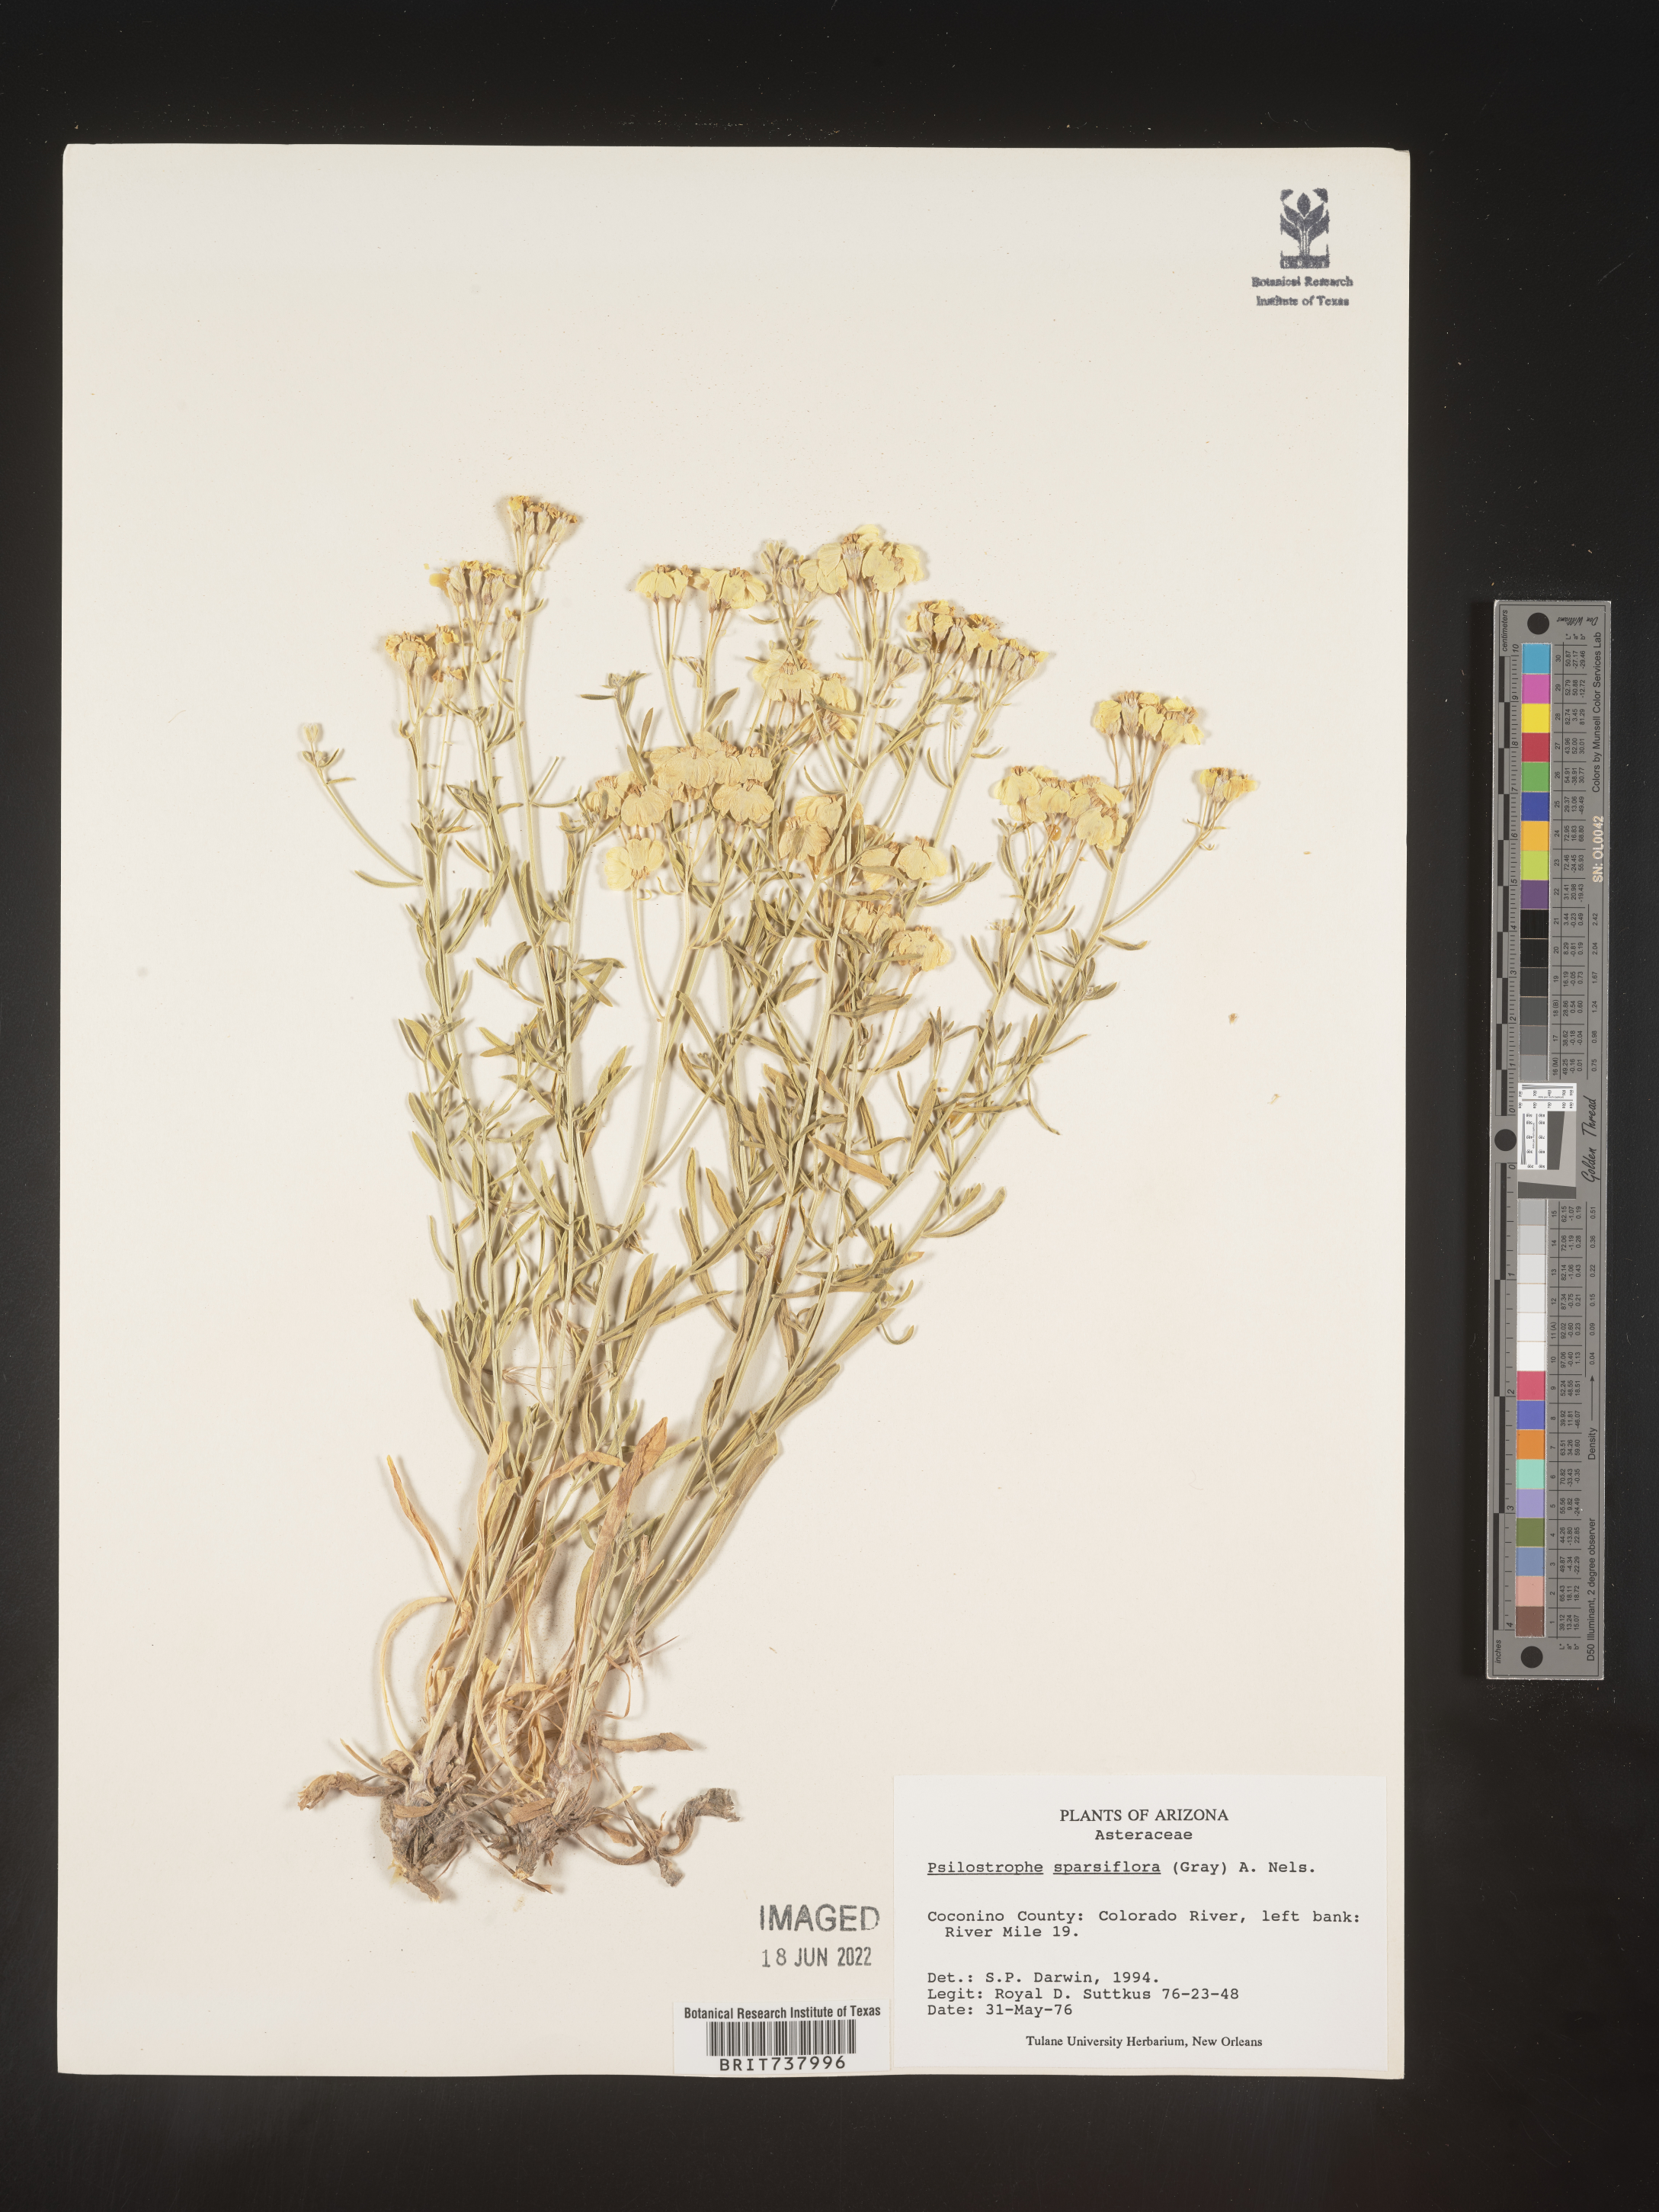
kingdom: Plantae
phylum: Tracheophyta
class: Magnoliopsida
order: Asterales
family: Asteraceae
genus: Psilostrophe
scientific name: Psilostrophe sparsiflora
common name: Green-stem paper-flower
